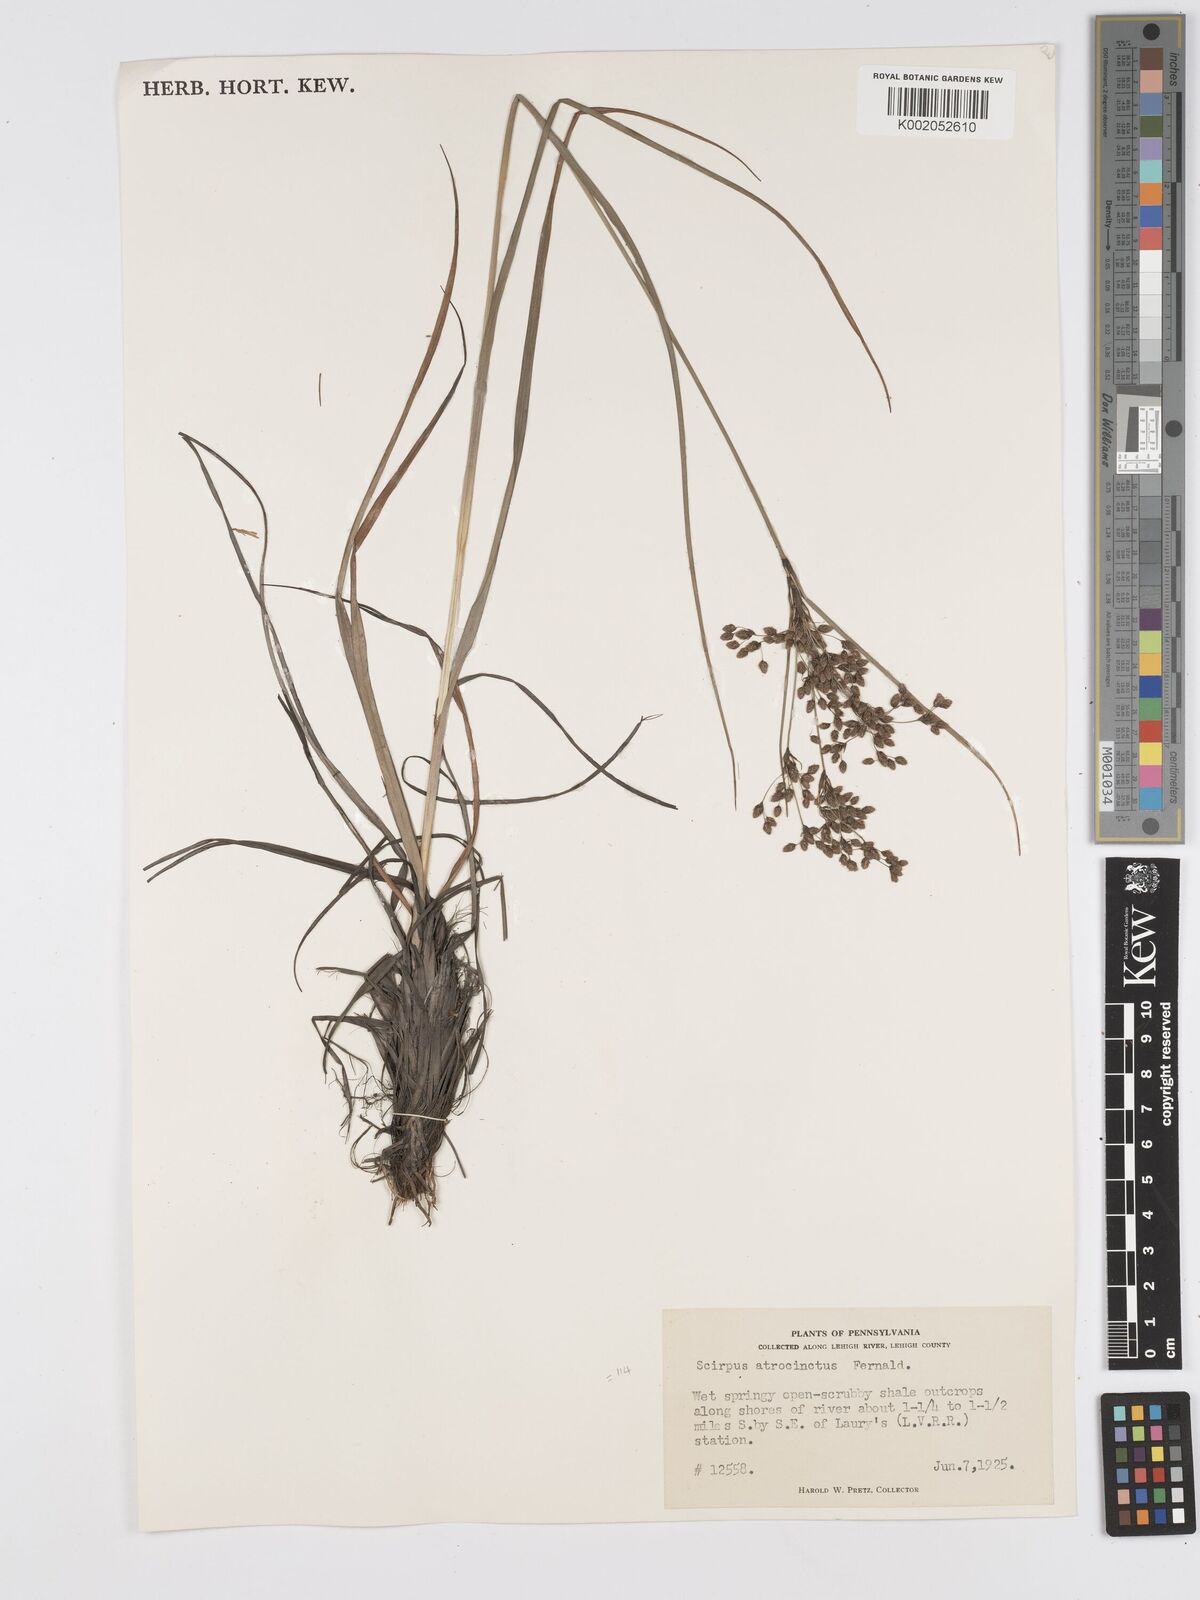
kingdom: Plantae
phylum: Tracheophyta
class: Liliopsida
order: Poales
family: Cyperaceae
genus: Scirpus
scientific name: Scirpus atrocinctus
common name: Black-girdled bulrush
